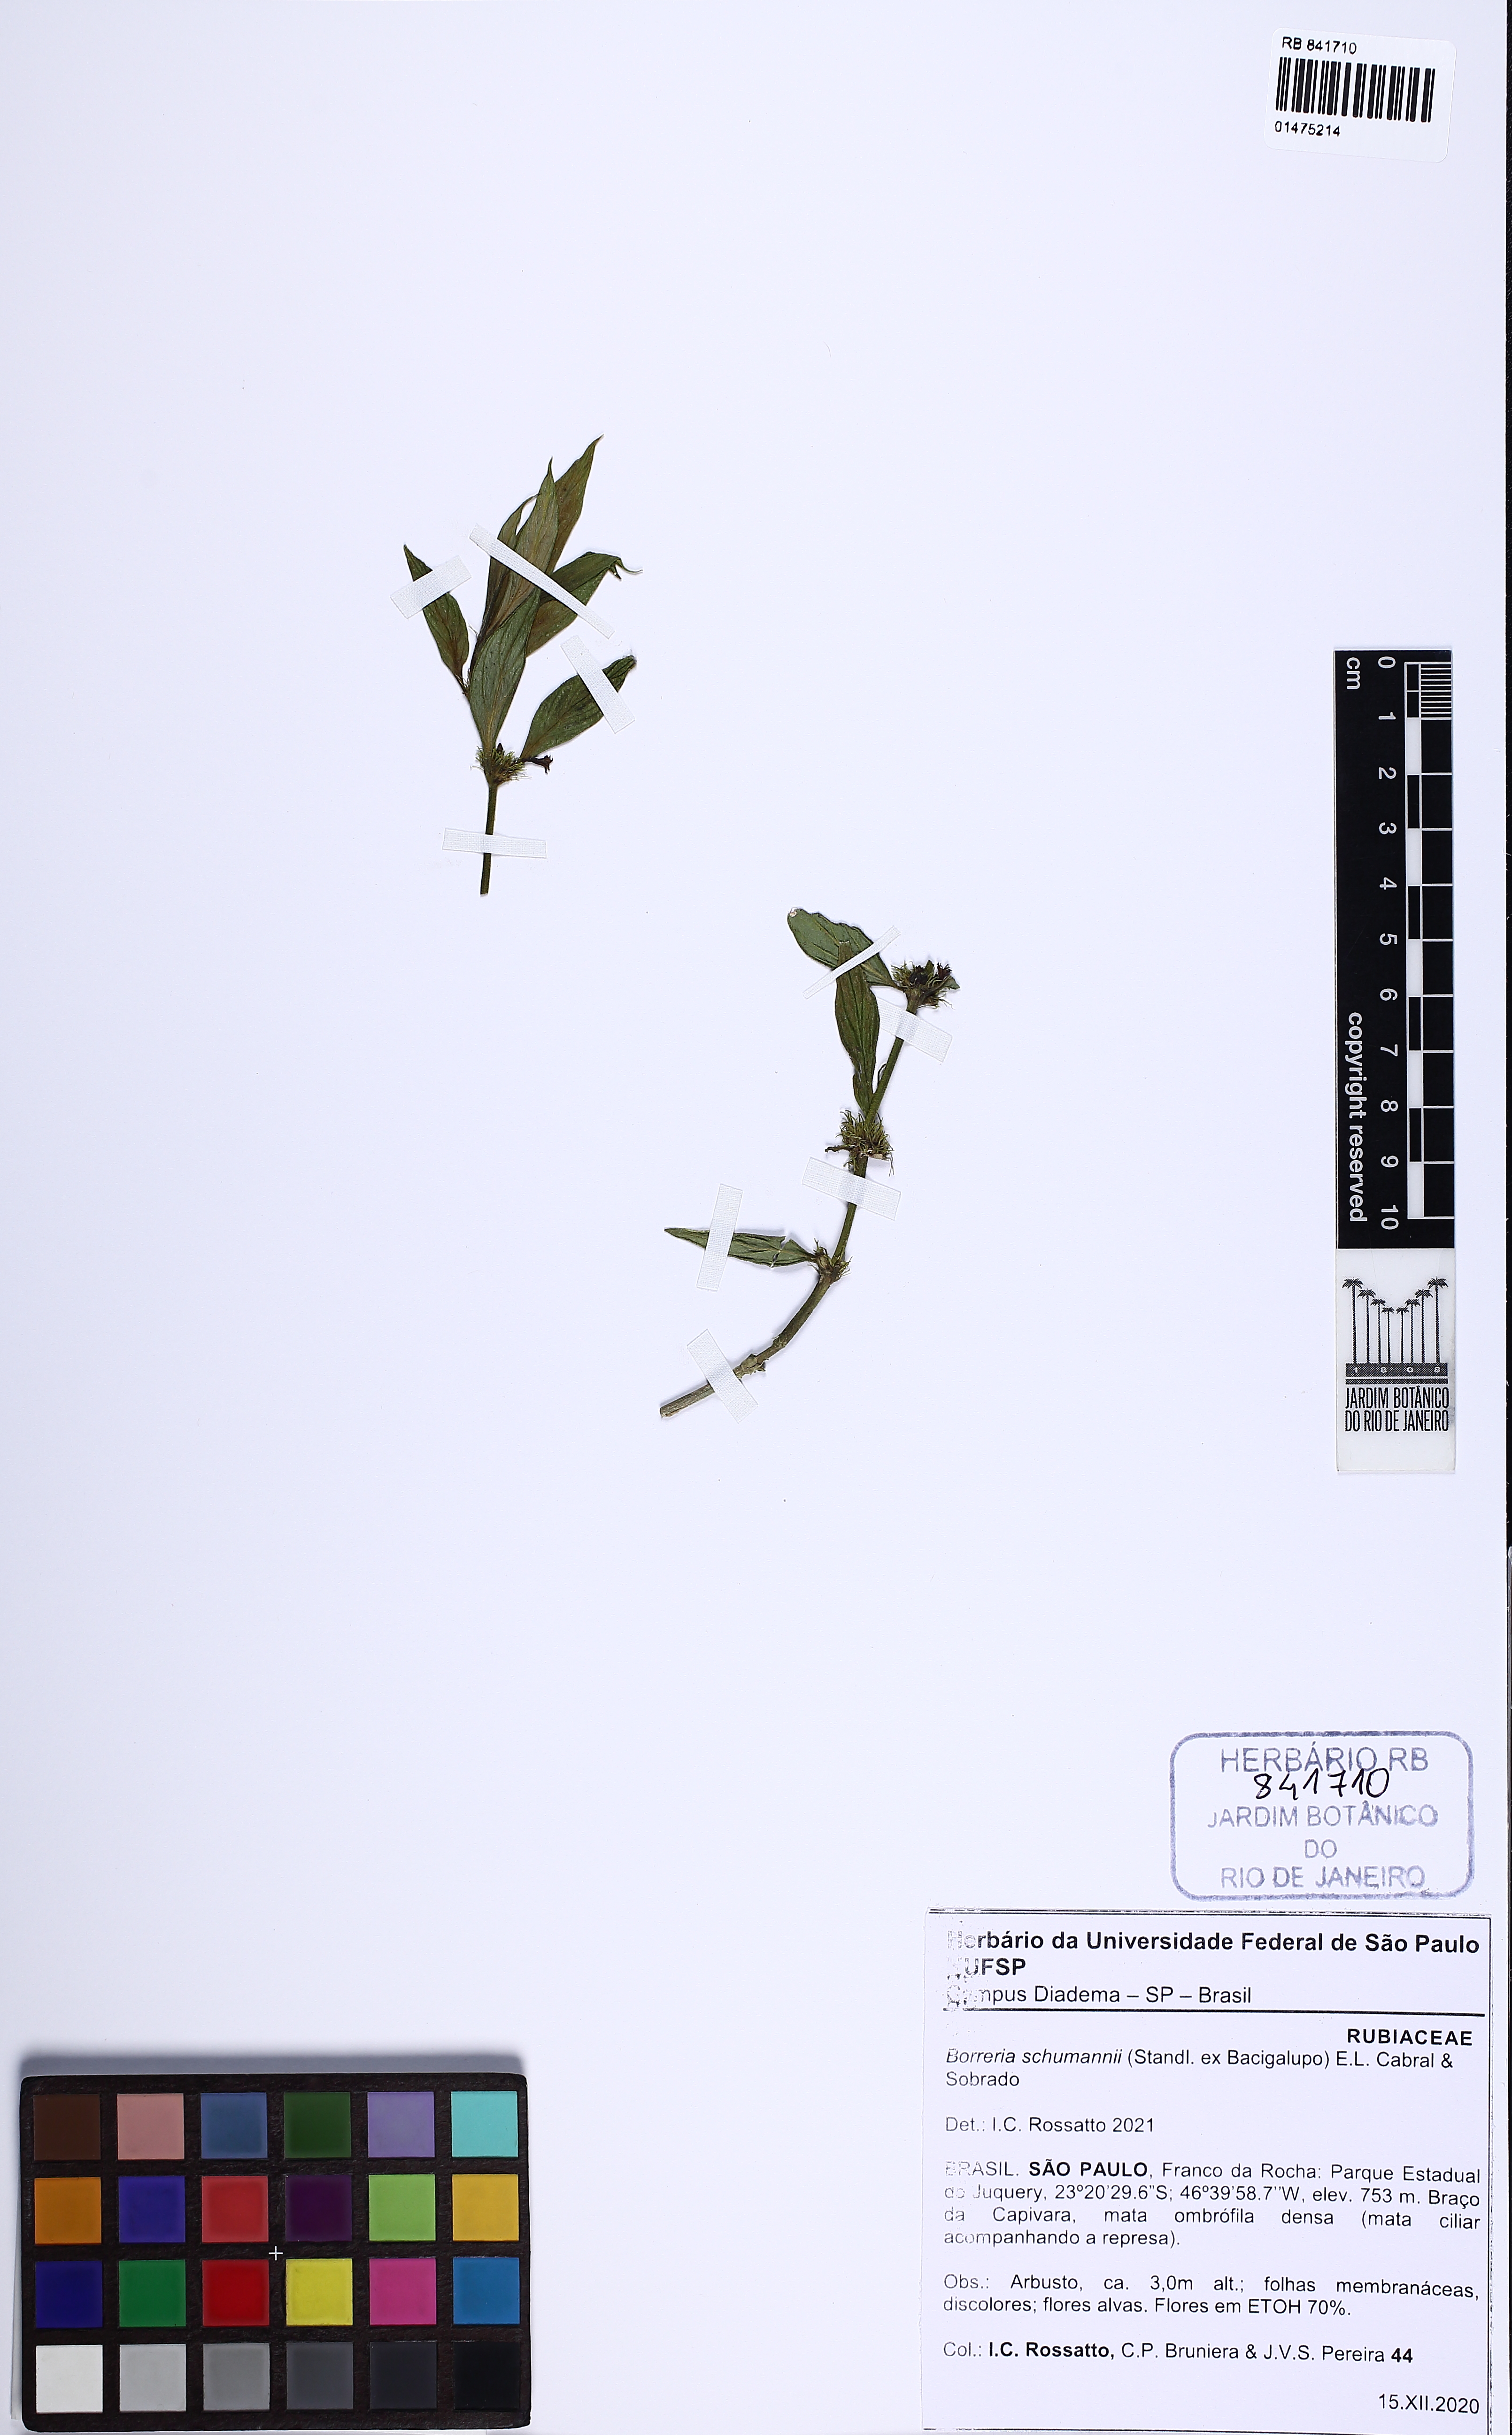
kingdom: Plantae
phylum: Tracheophyta
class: Magnoliopsida
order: Gentianales
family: Rubiaceae
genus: Spermacoce
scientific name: Spermacoce schumannii
